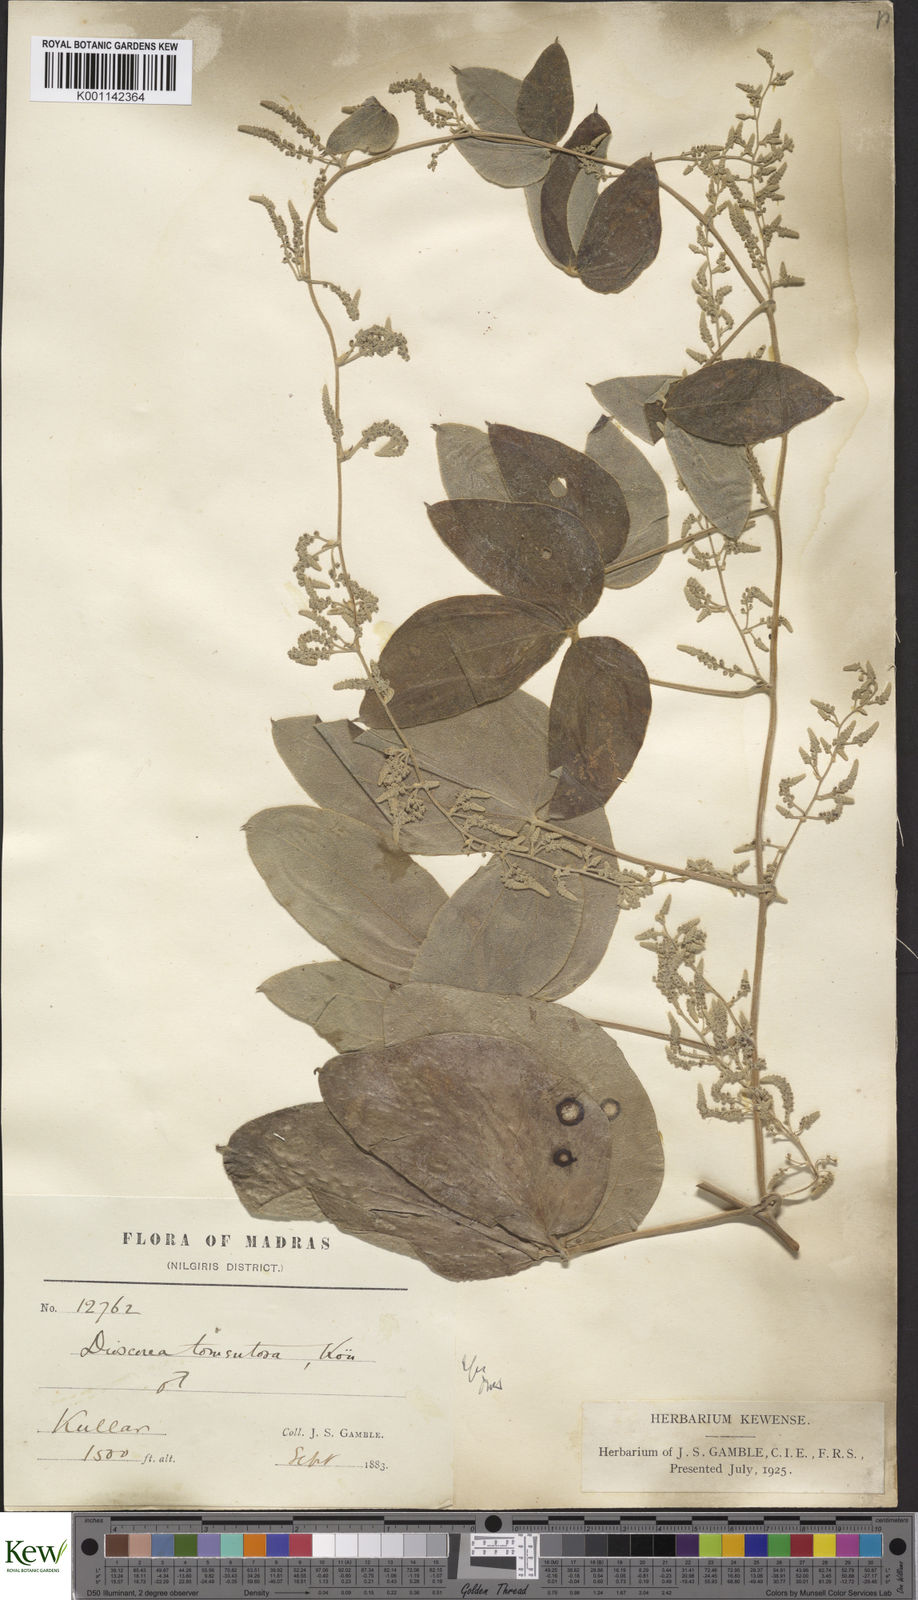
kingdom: Plantae
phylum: Tracheophyta
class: Liliopsida
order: Dioscoreales
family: Dioscoreaceae
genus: Dioscorea
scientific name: Dioscorea
